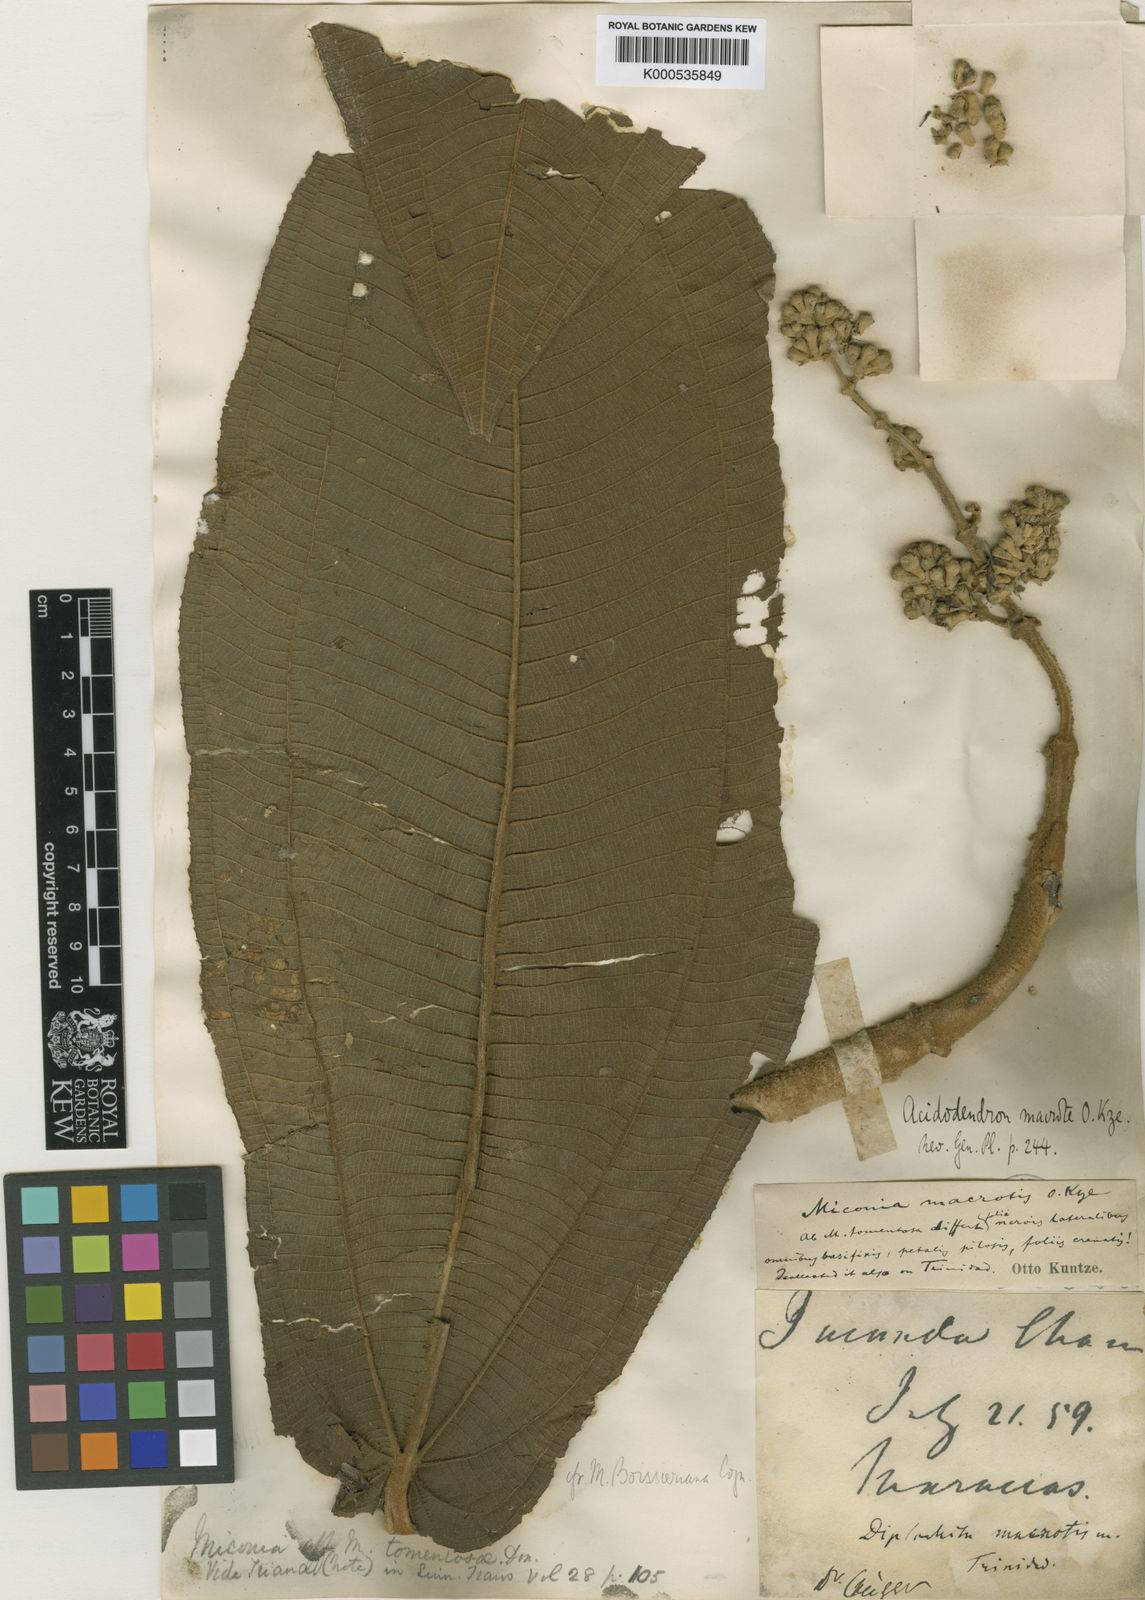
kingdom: Plantae
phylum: Tracheophyta
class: Magnoliopsida
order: Myrtales
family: Melastomataceae
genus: Miconia
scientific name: Miconia
